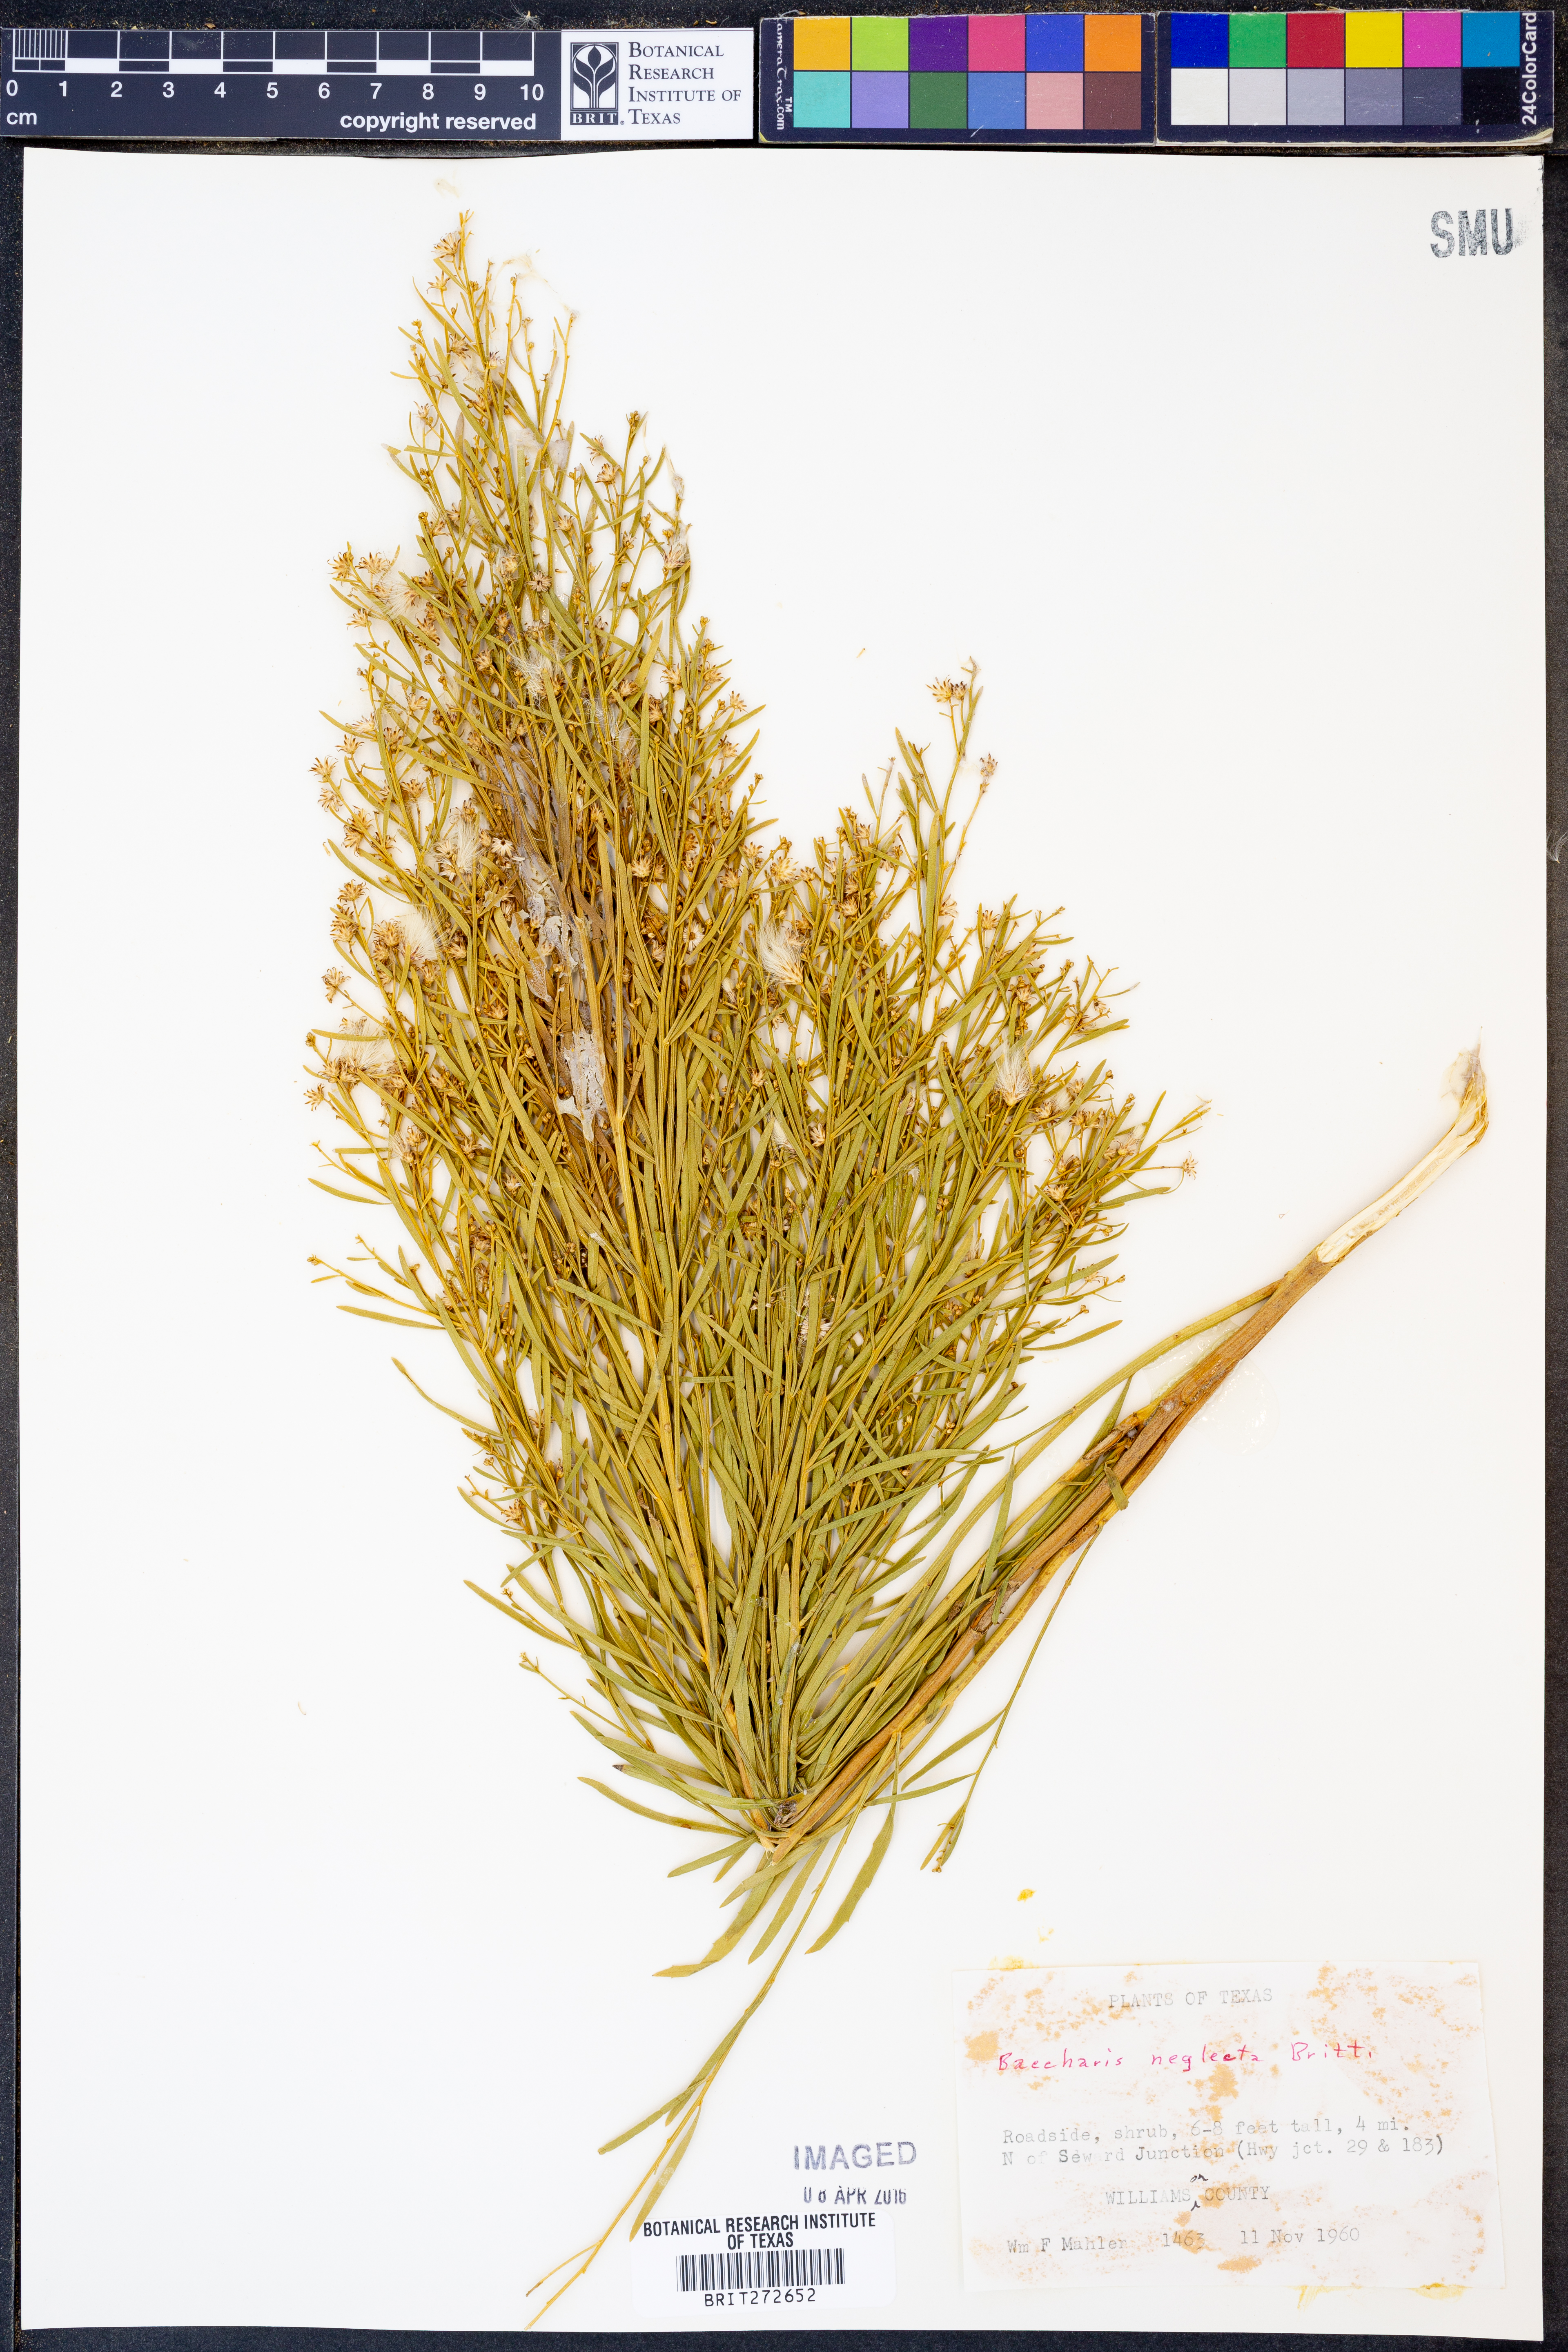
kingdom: Plantae
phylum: Tracheophyta
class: Magnoliopsida
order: Asterales
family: Asteraceae
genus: Baccharis
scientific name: Baccharis neglecta
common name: Roosevelt-weed
